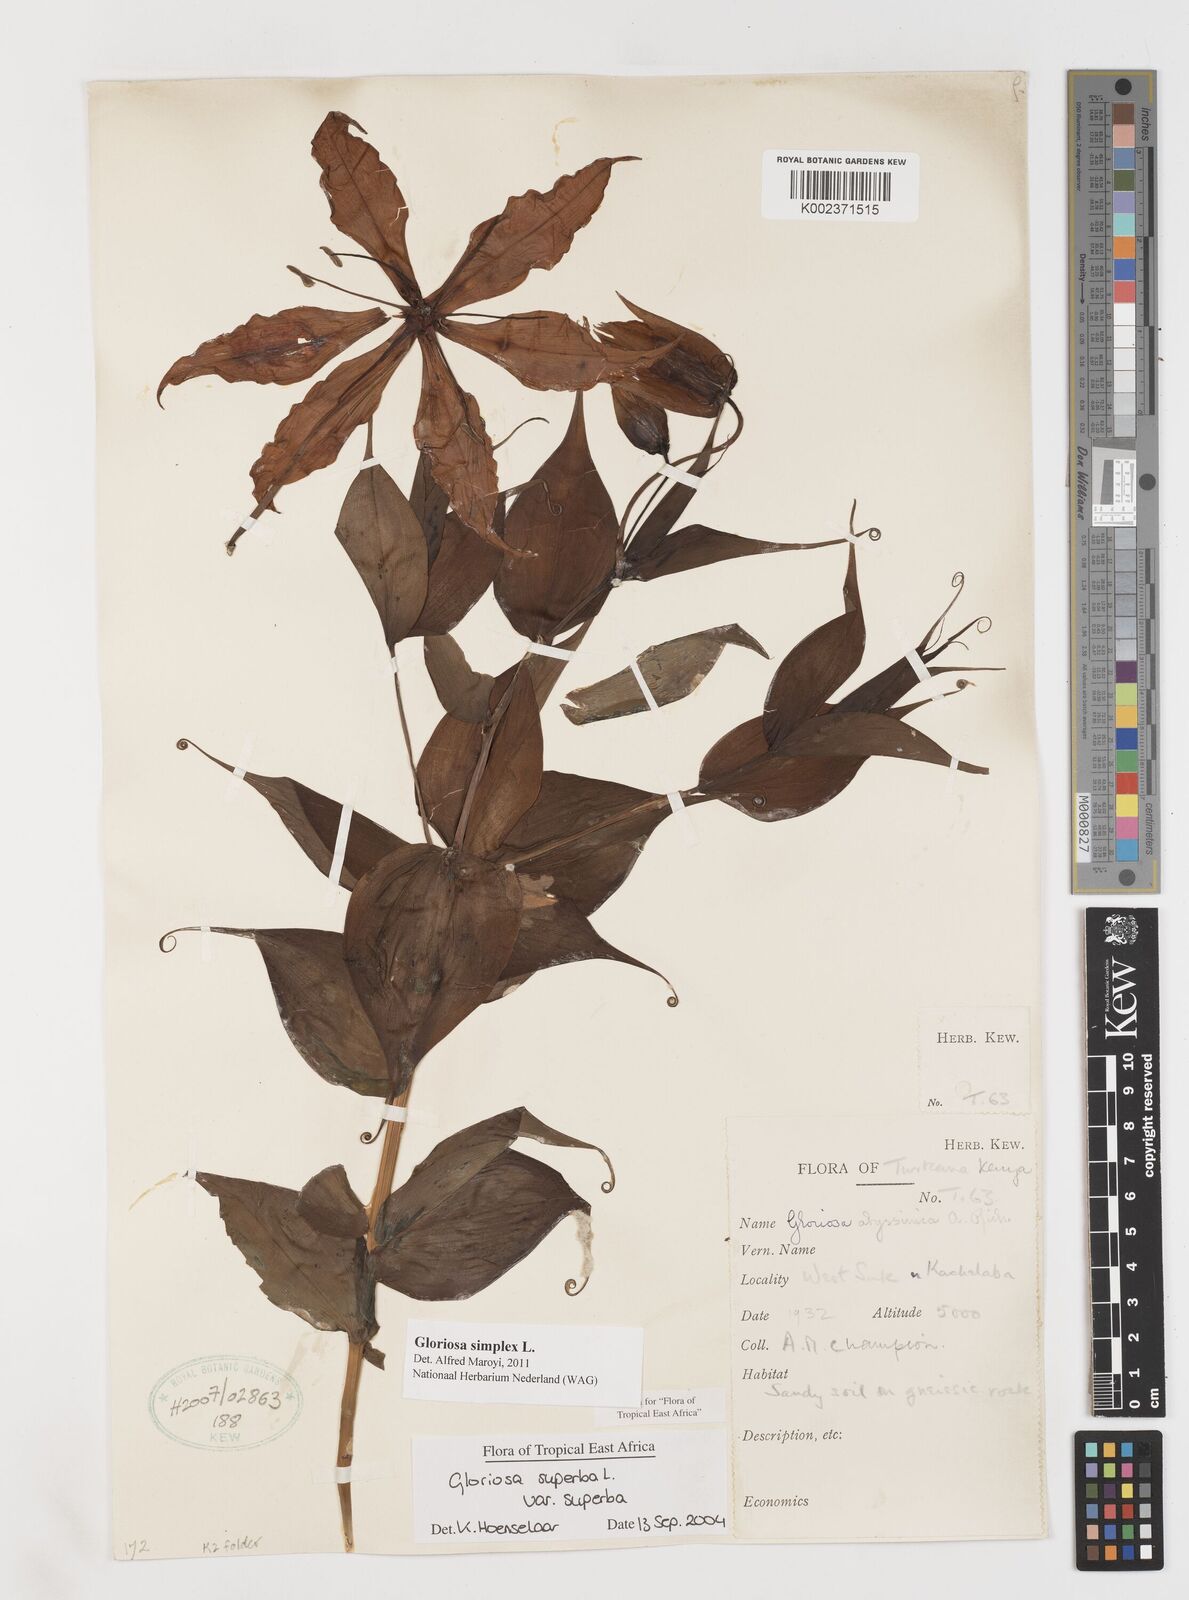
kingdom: Plantae
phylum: Tracheophyta
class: Liliopsida
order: Liliales
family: Colchicaceae
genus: Gloriosa
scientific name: Gloriosa simplex
